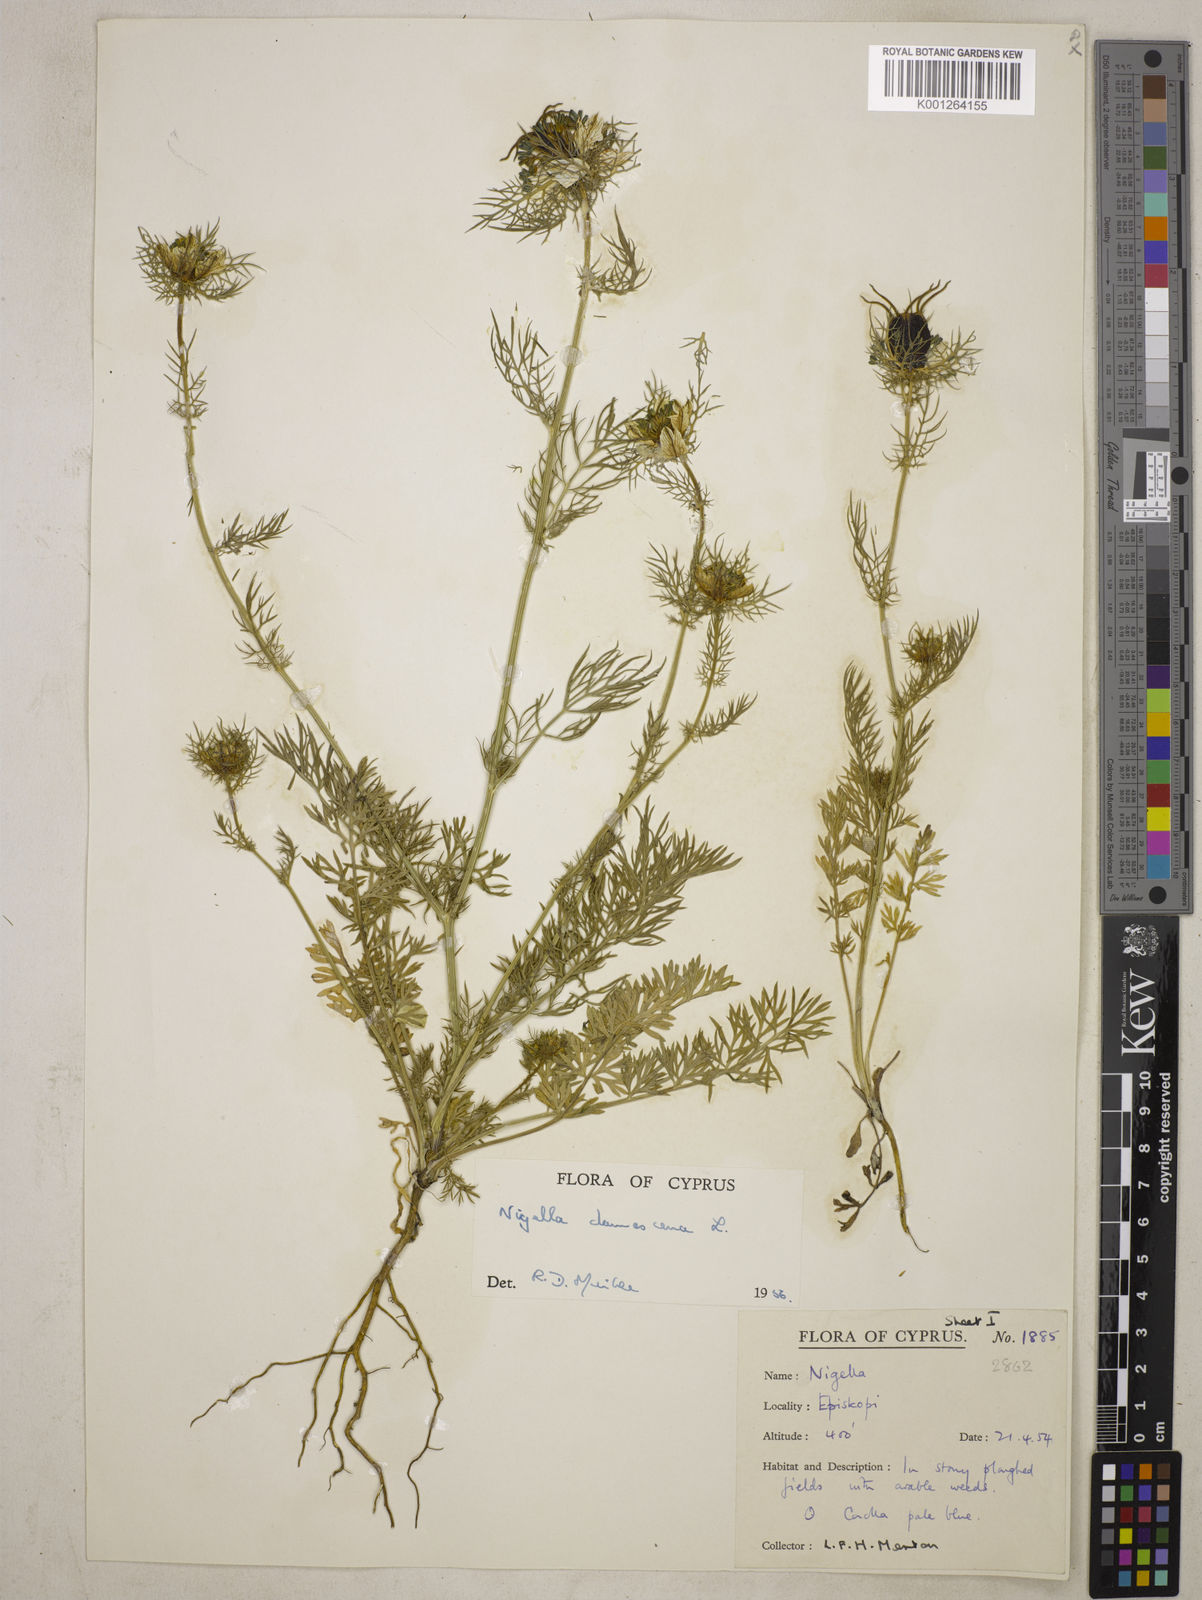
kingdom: Plantae
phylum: Tracheophyta
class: Magnoliopsida
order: Ranunculales
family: Ranunculaceae
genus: Nigella
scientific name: Nigella damascena
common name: Love-in-a-mist
